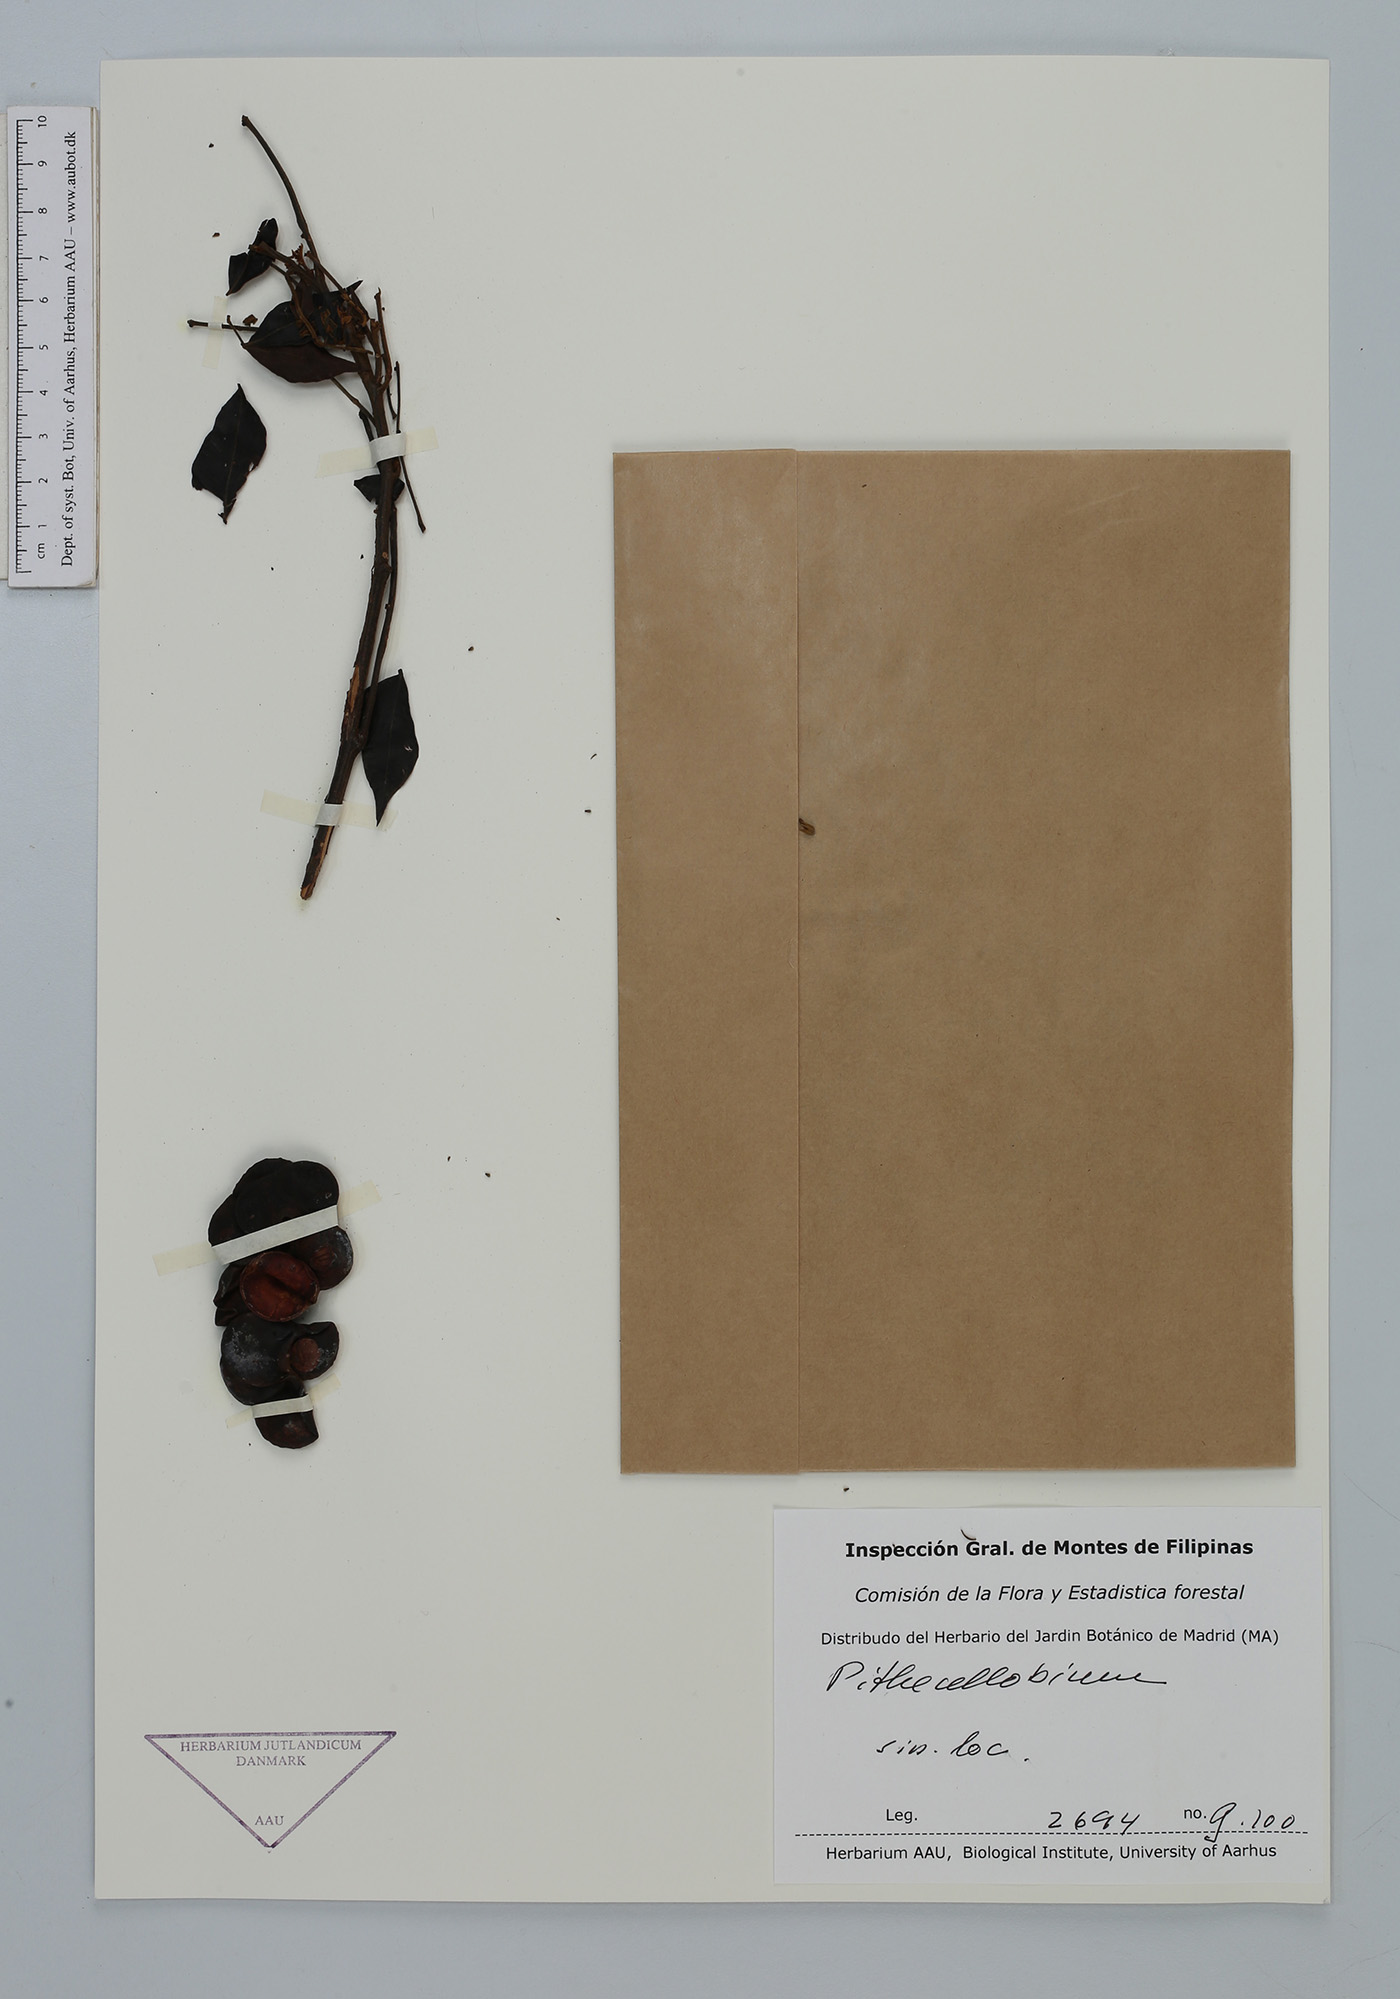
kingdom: Plantae
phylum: Tracheophyta
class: Magnoliopsida
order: Fabales
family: Fabaceae
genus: Archidendron
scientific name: Archidendron
